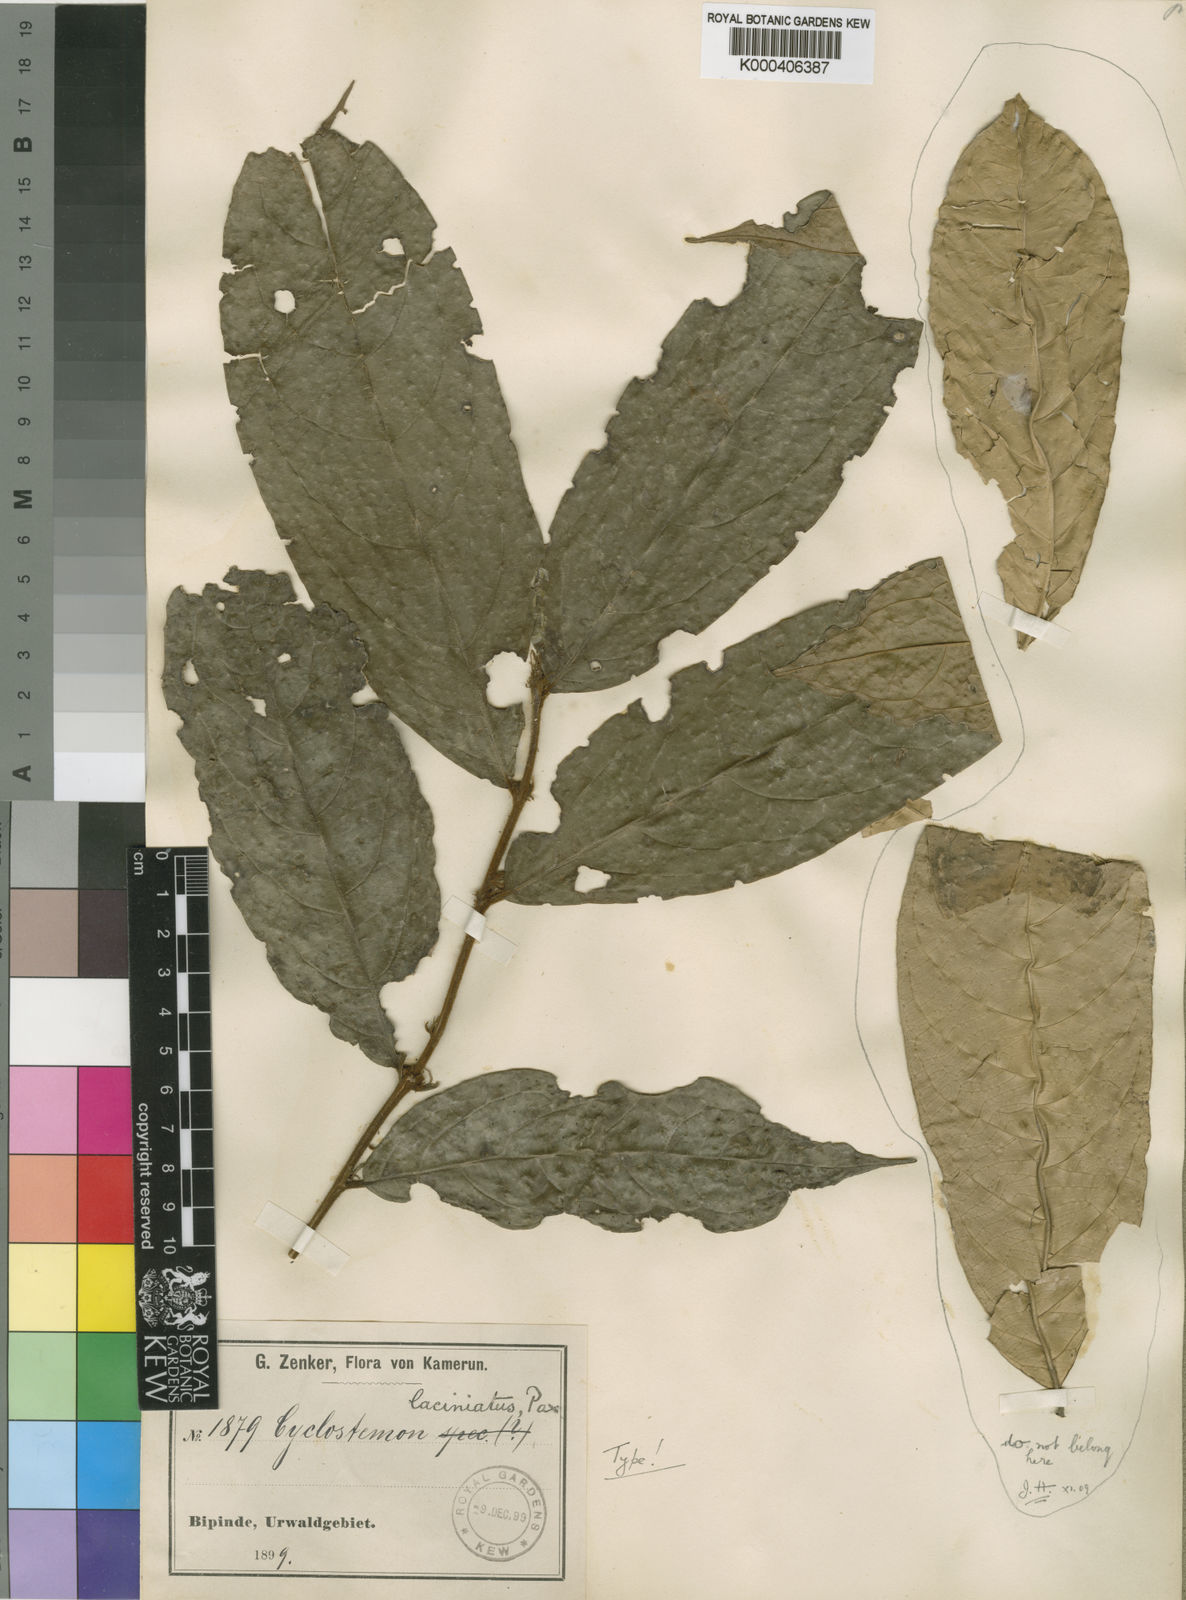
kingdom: Plantae
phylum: Tracheophyta
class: Magnoliopsida
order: Malpighiales
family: Putranjivaceae
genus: Drypetes
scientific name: Drypetes laciniata
